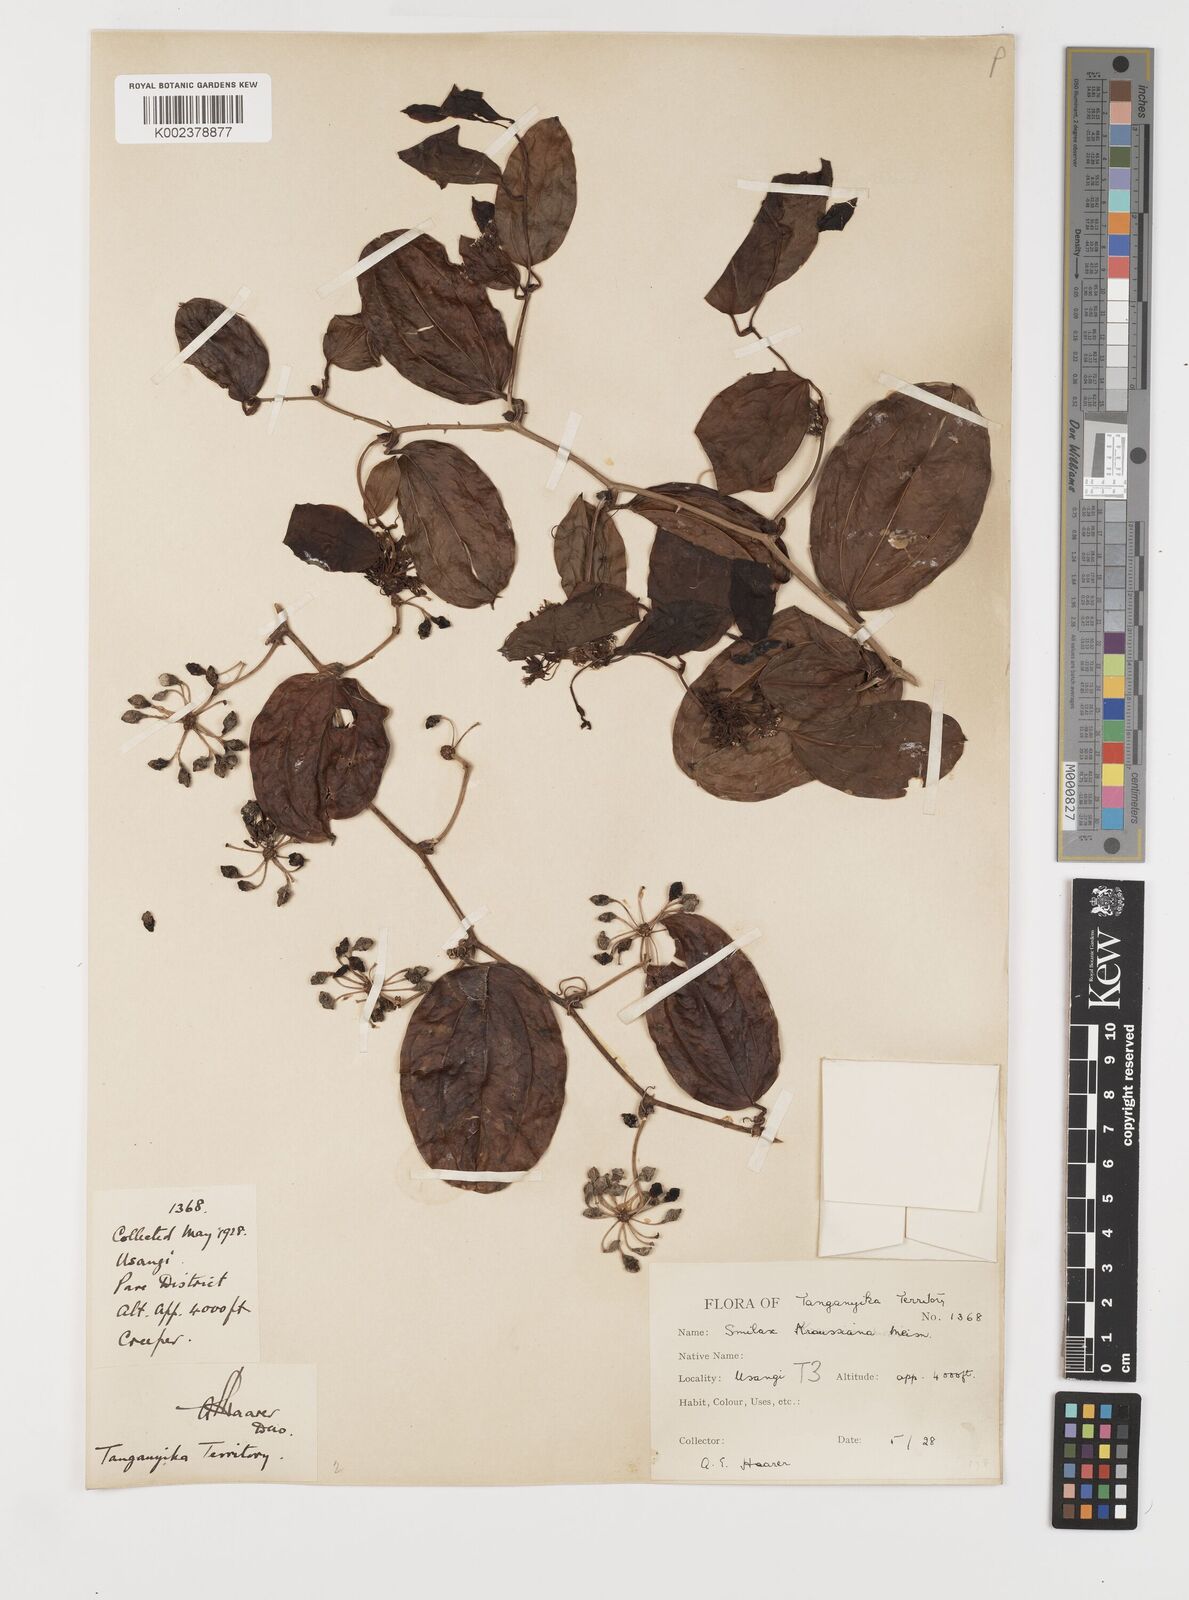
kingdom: Plantae
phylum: Tracheophyta
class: Liliopsida
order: Liliales
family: Smilacaceae
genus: Smilax
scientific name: Smilax anceps
